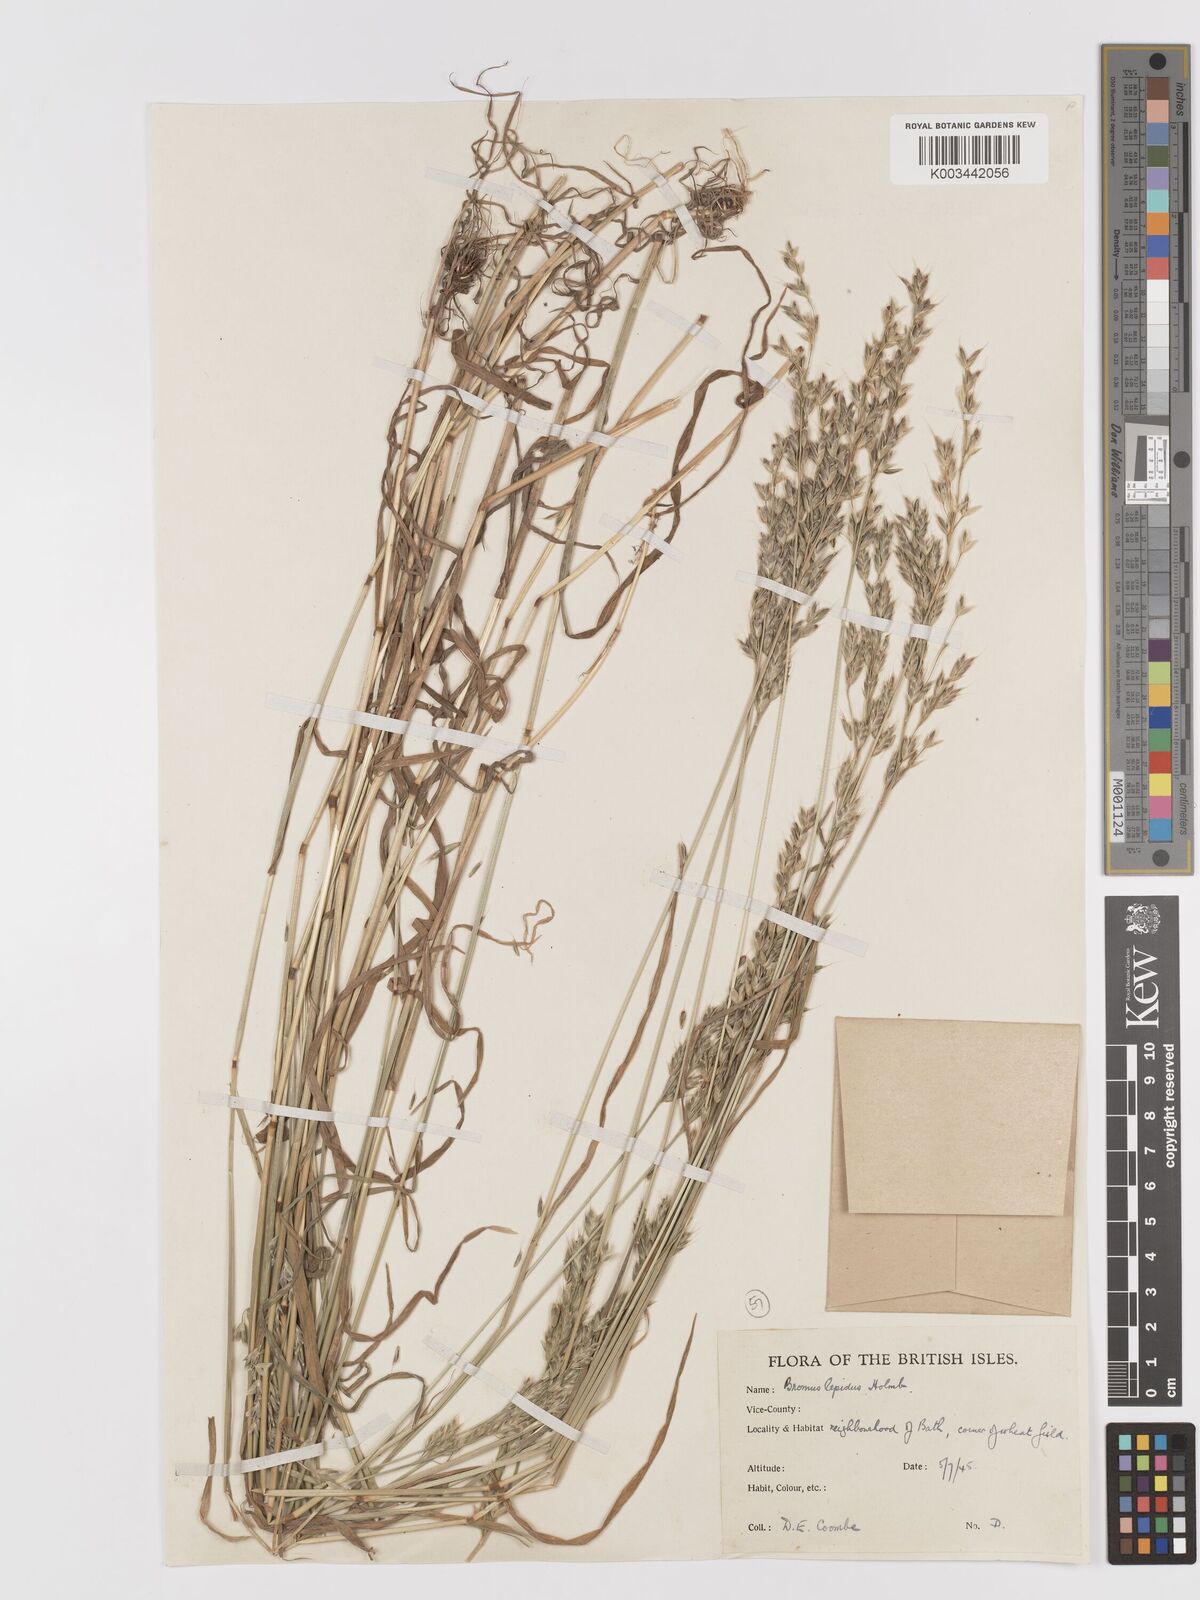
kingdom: Plantae
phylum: Tracheophyta
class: Liliopsida
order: Poales
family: Poaceae
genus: Bromus
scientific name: Bromus lepidus
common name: Slender soft-brome
